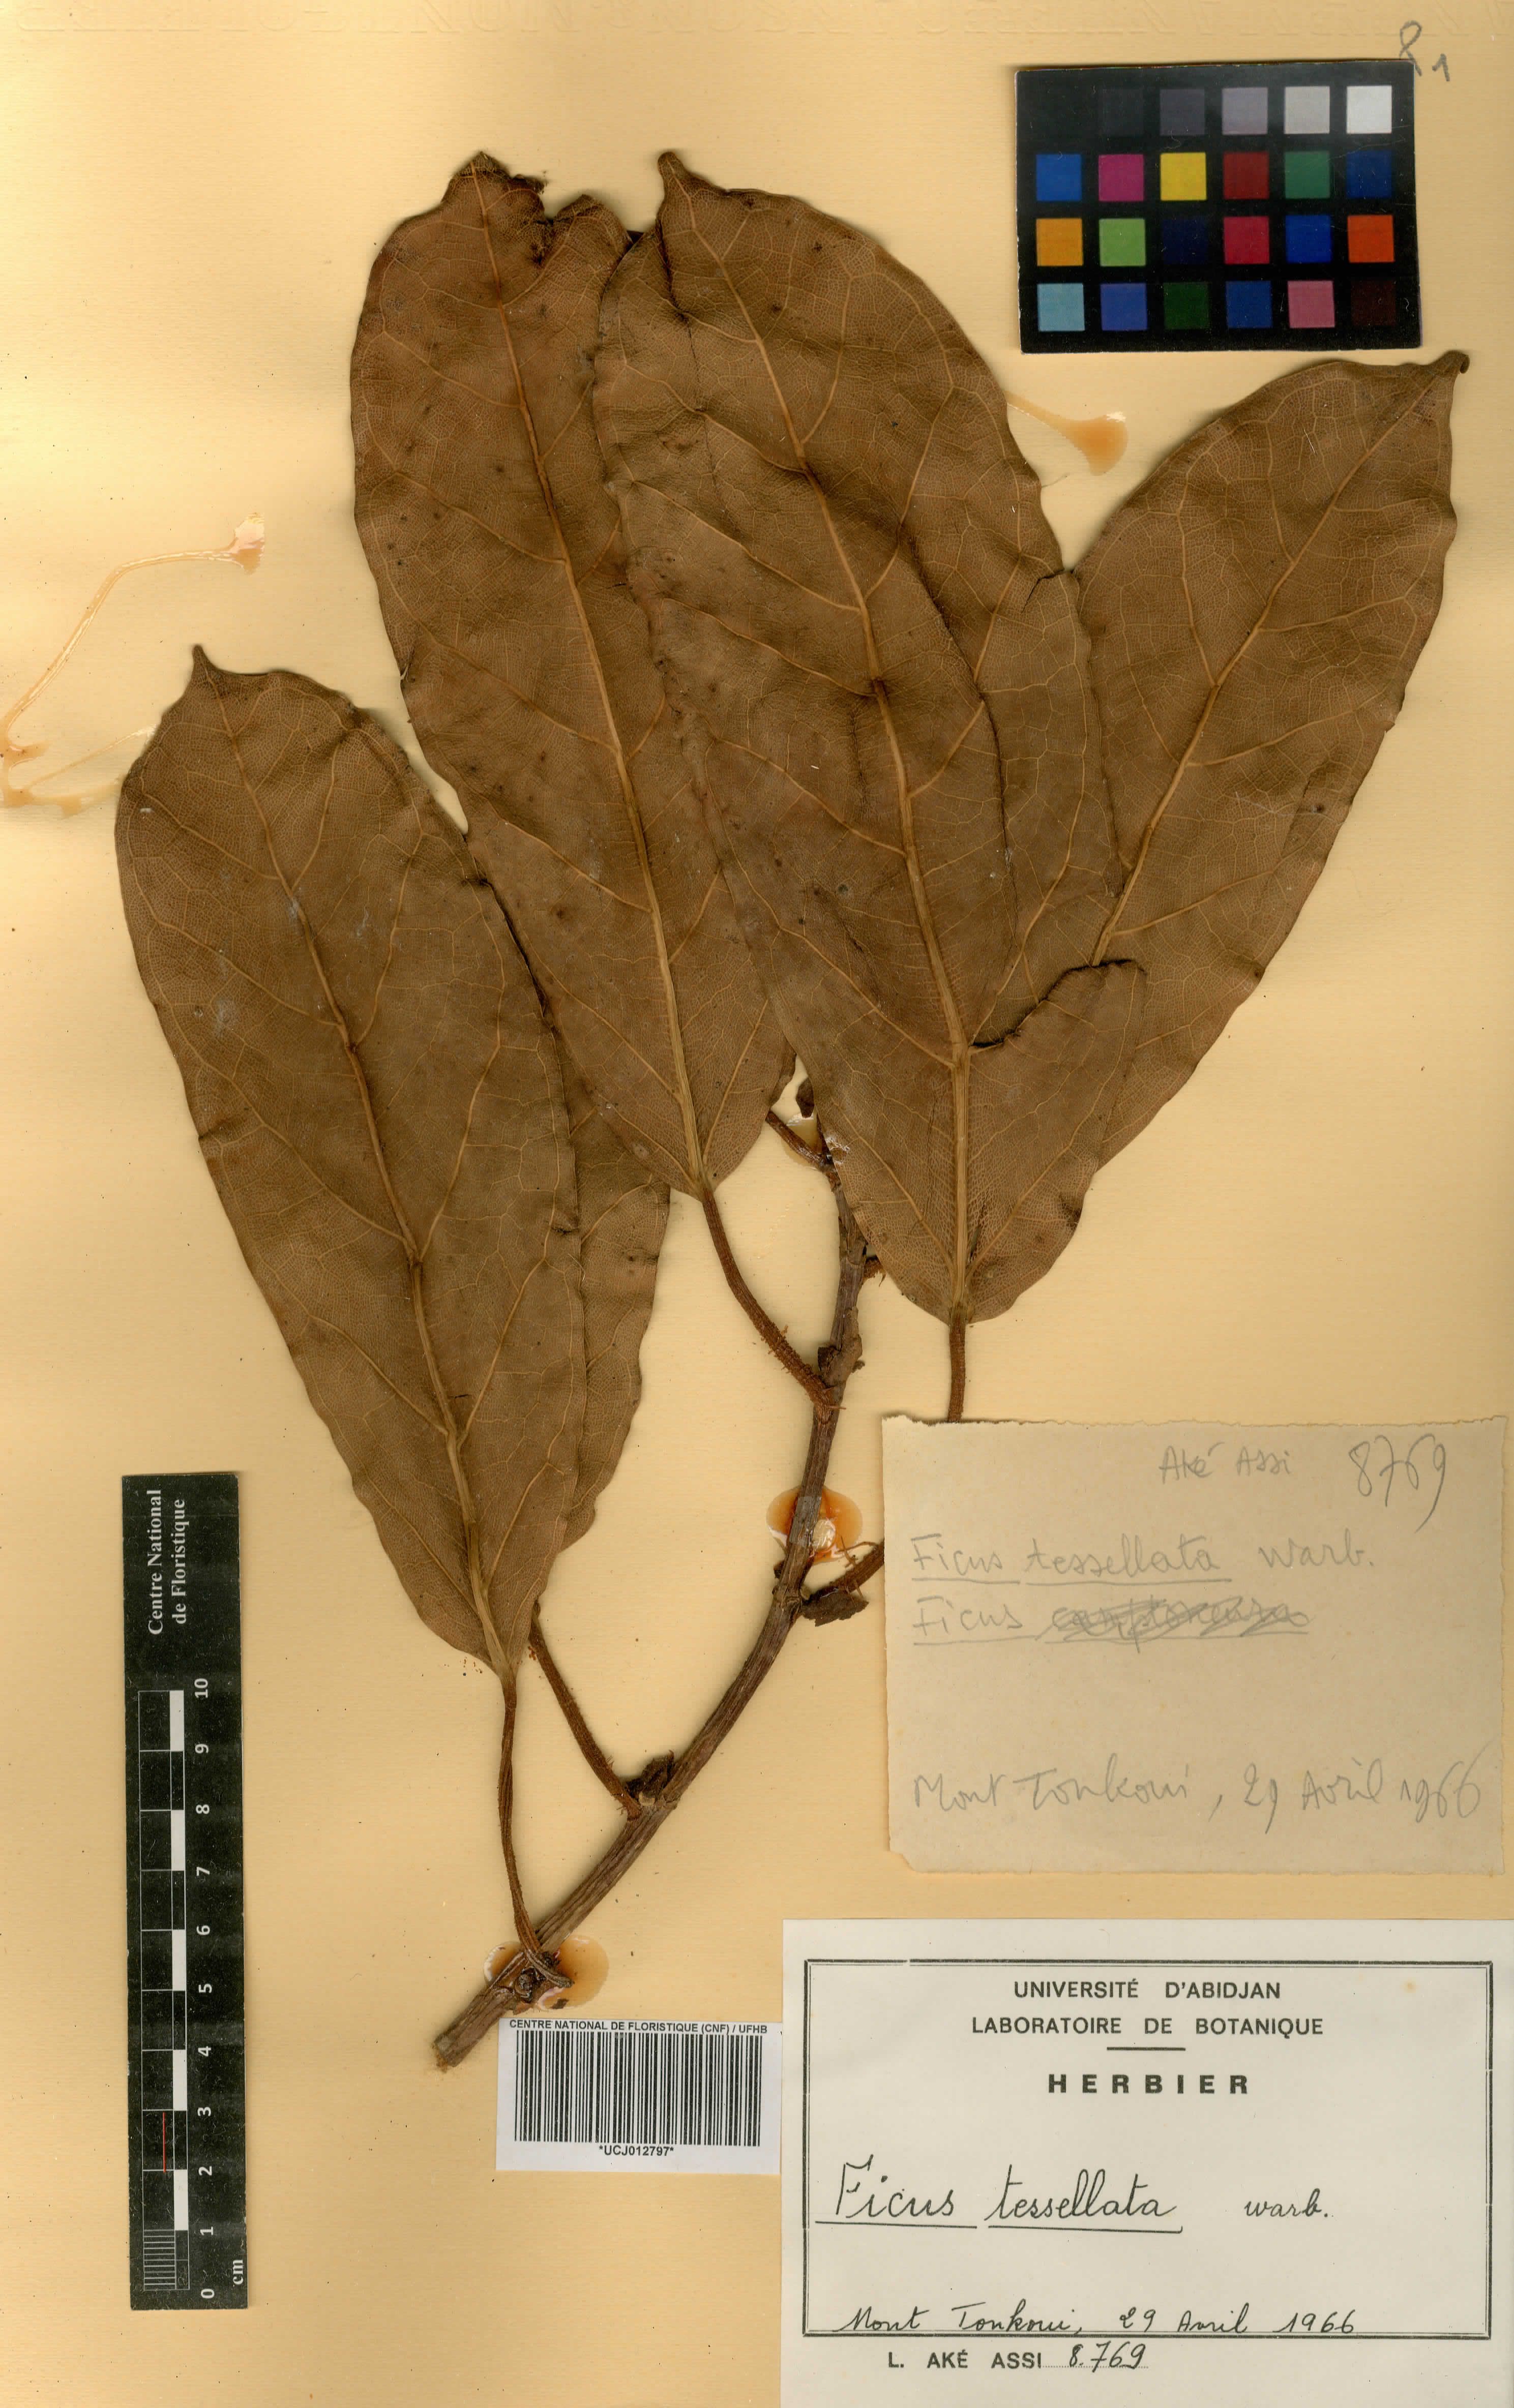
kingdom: Plantae
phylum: Tracheophyta
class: Magnoliopsida
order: Rosales
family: Moraceae
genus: Ficus
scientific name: Ficus tesselata
